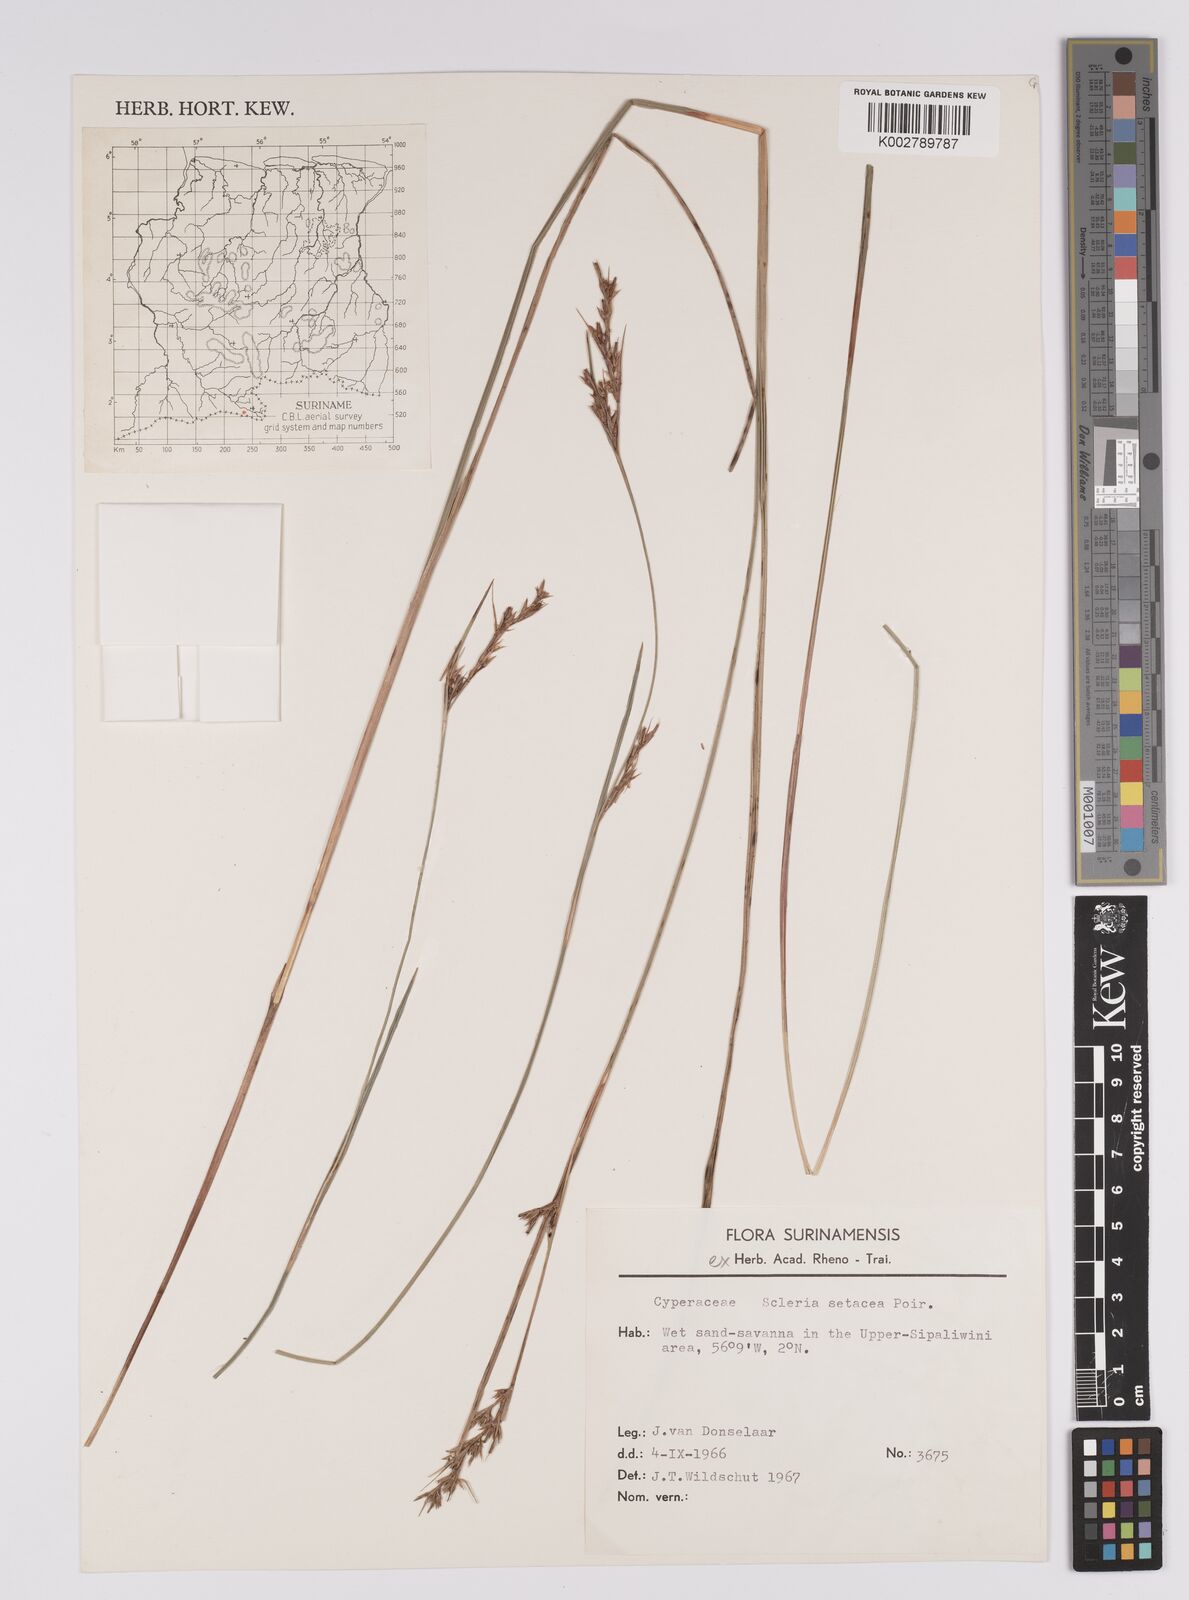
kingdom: Plantae
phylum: Tracheophyta
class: Liliopsida
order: Poales
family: Cyperaceae
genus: Rhynchospora
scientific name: Rhynchospora tenerrima
